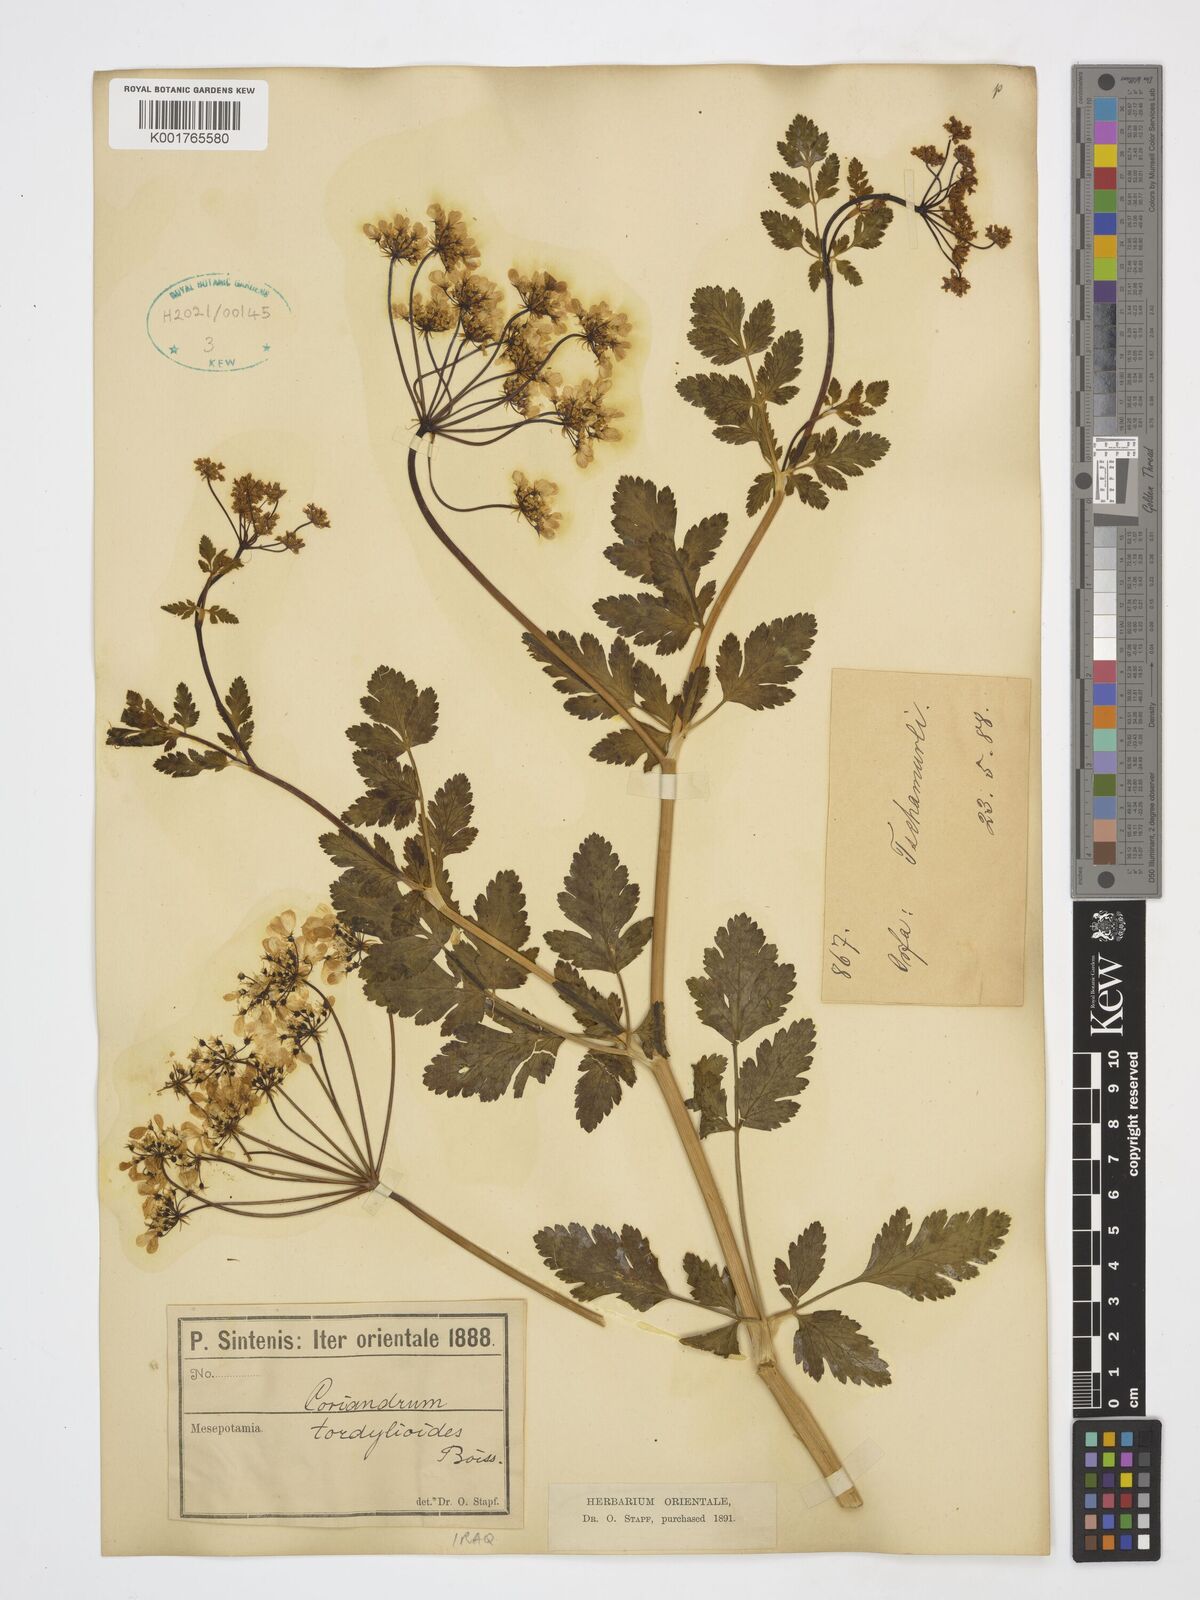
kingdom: Plantae
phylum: Tracheophyta
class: Magnoliopsida
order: Apiales
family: Apiaceae
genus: Coriandrum
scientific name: Coriandrum tordylium
